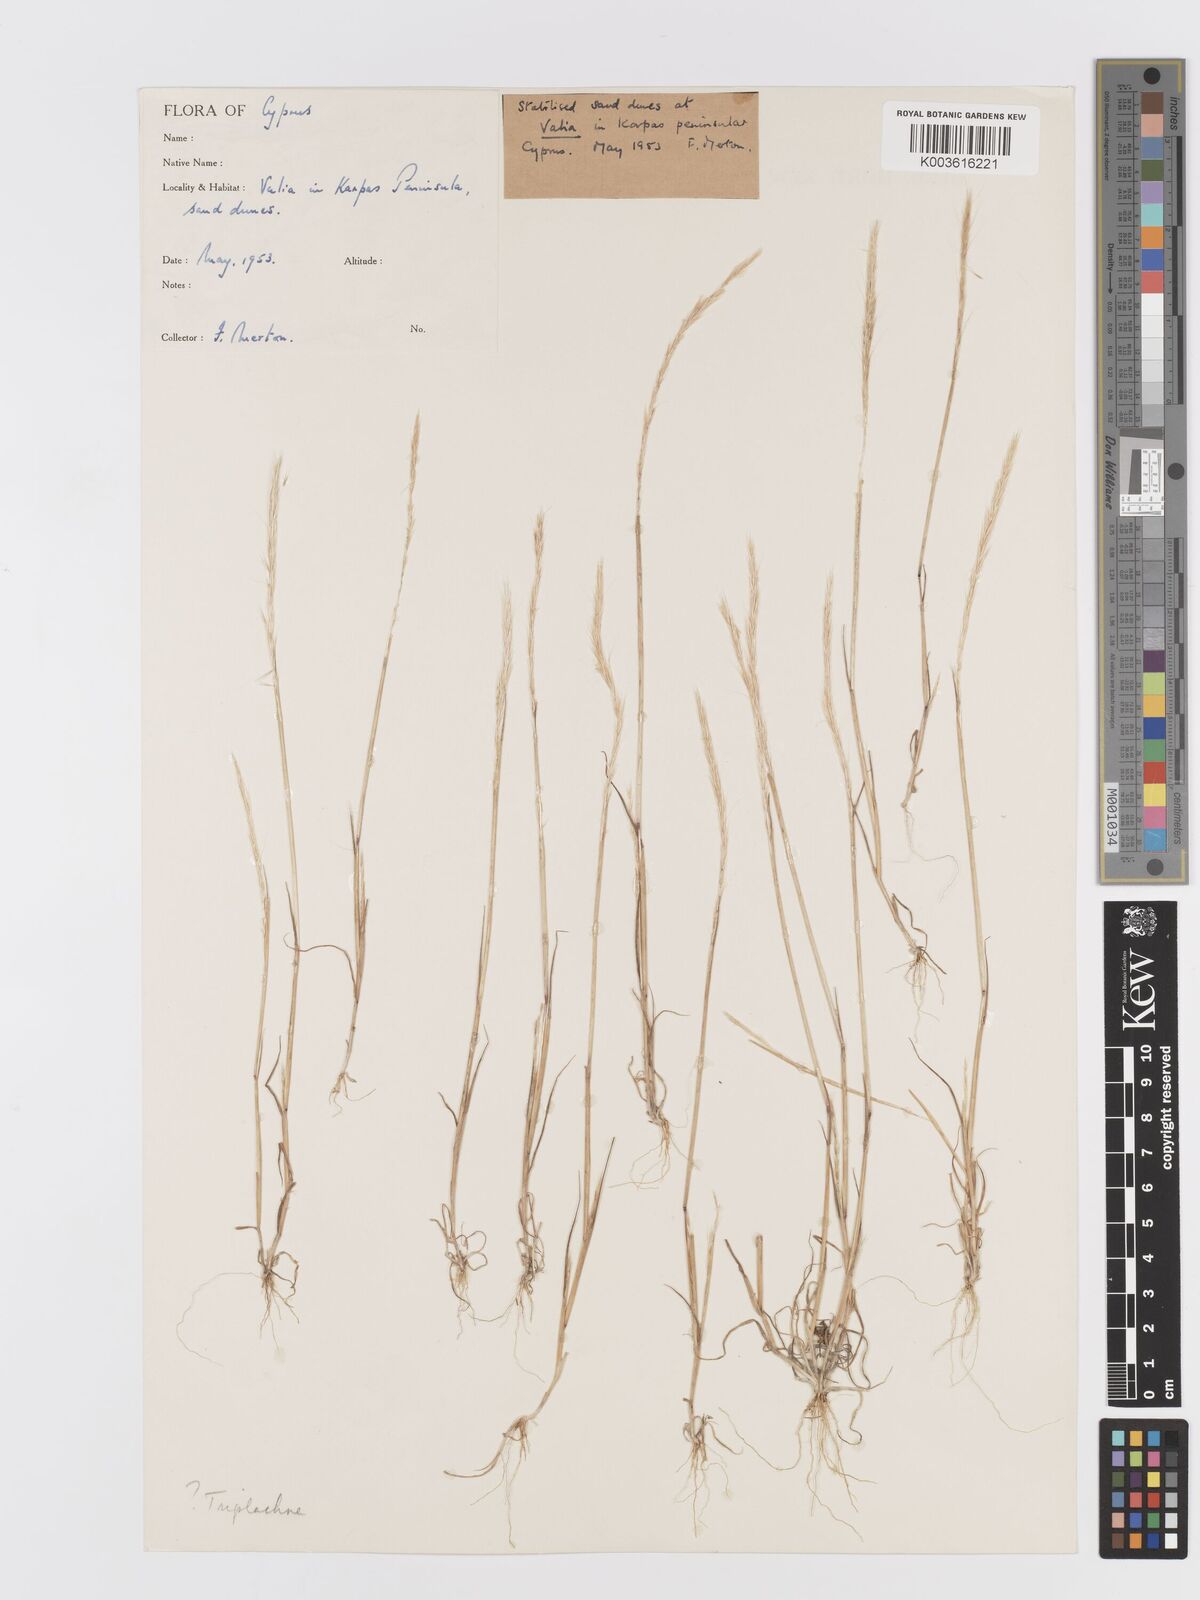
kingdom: Plantae
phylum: Tracheophyta
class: Liliopsida
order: Poales
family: Poaceae
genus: Trisetaria
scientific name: Trisetaria linearis
